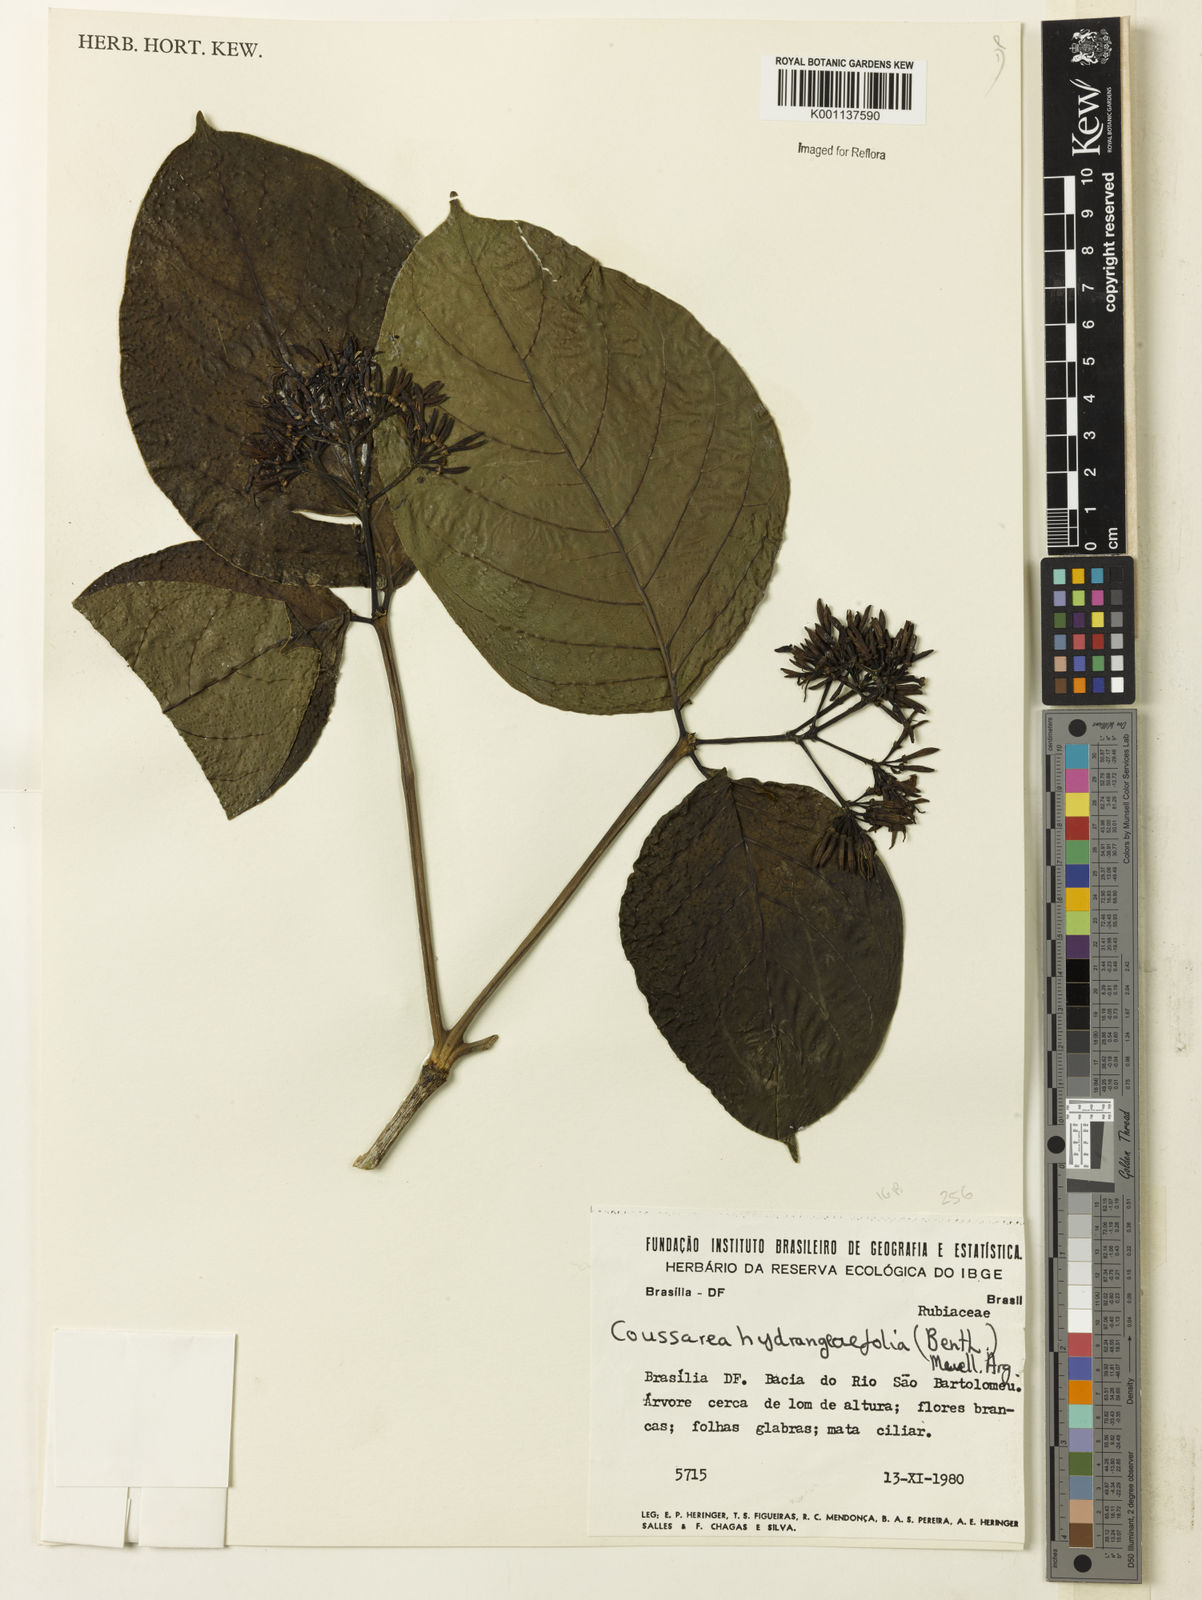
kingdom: Plantae
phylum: Tracheophyta
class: Magnoliopsida
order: Gentianales
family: Rubiaceae
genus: Coussarea
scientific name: Coussarea
